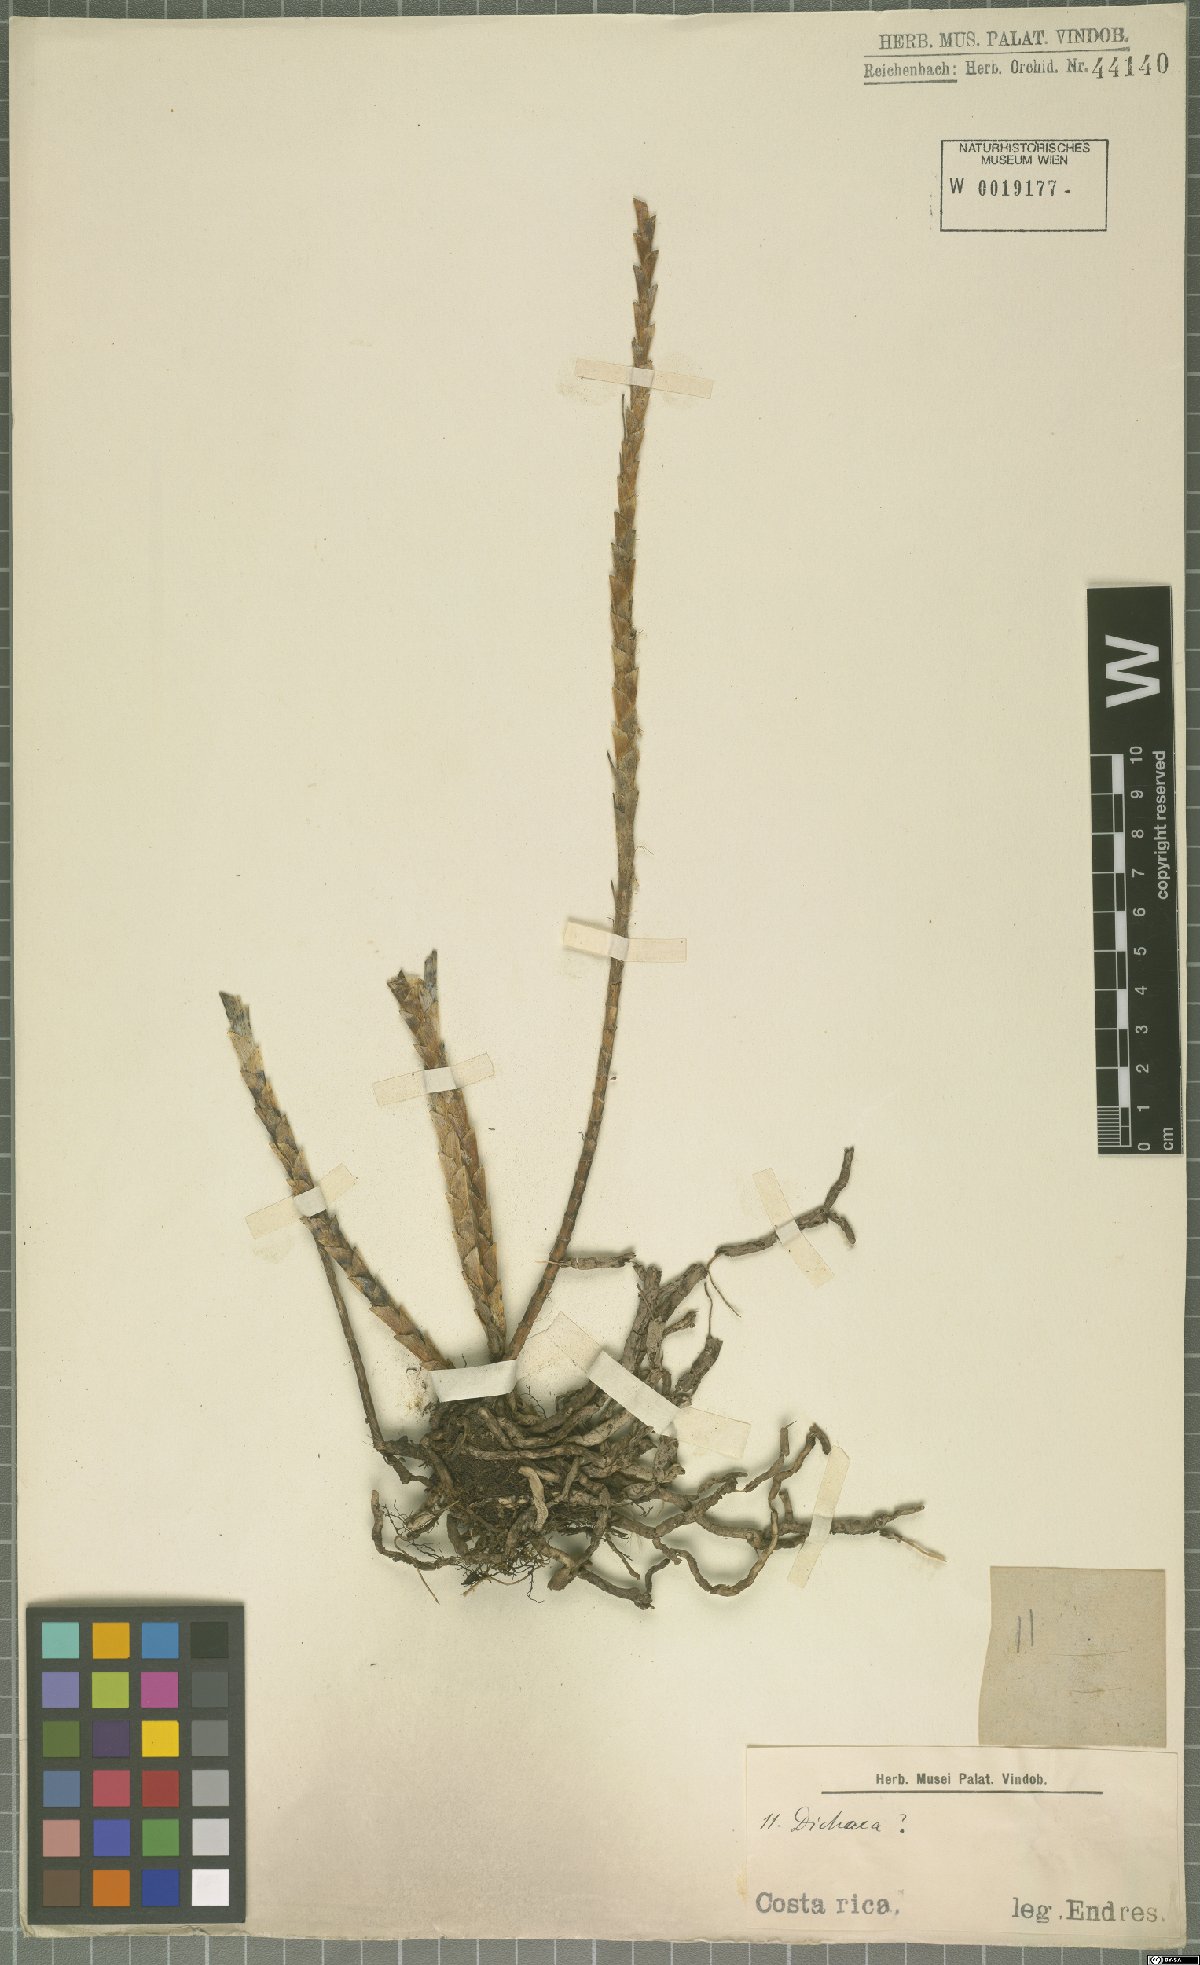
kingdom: Plantae
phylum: Tracheophyta
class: Liliopsida
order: Asparagales
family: Orchidaceae
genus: Dichaea
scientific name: Dichaea
